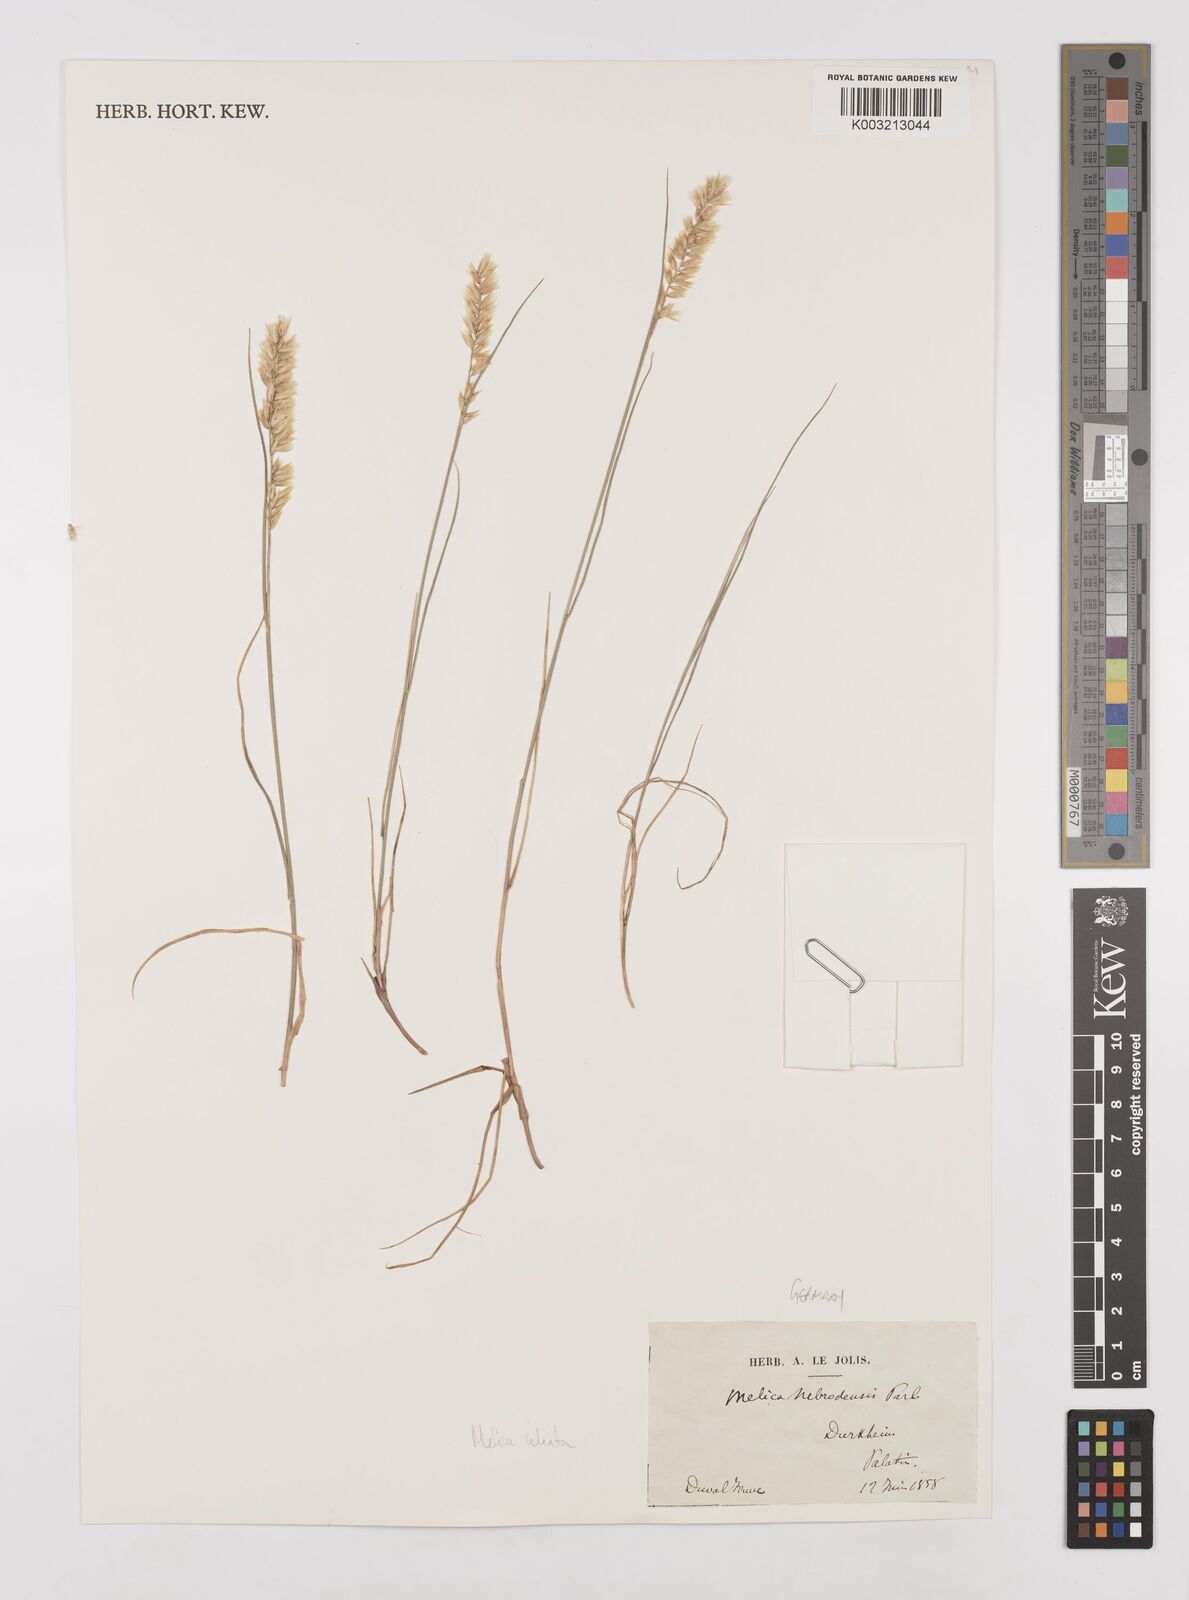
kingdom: Plantae
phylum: Tracheophyta
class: Liliopsida
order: Poales
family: Poaceae
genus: Melica
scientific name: Melica ciliata
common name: Hairy melicgrass
